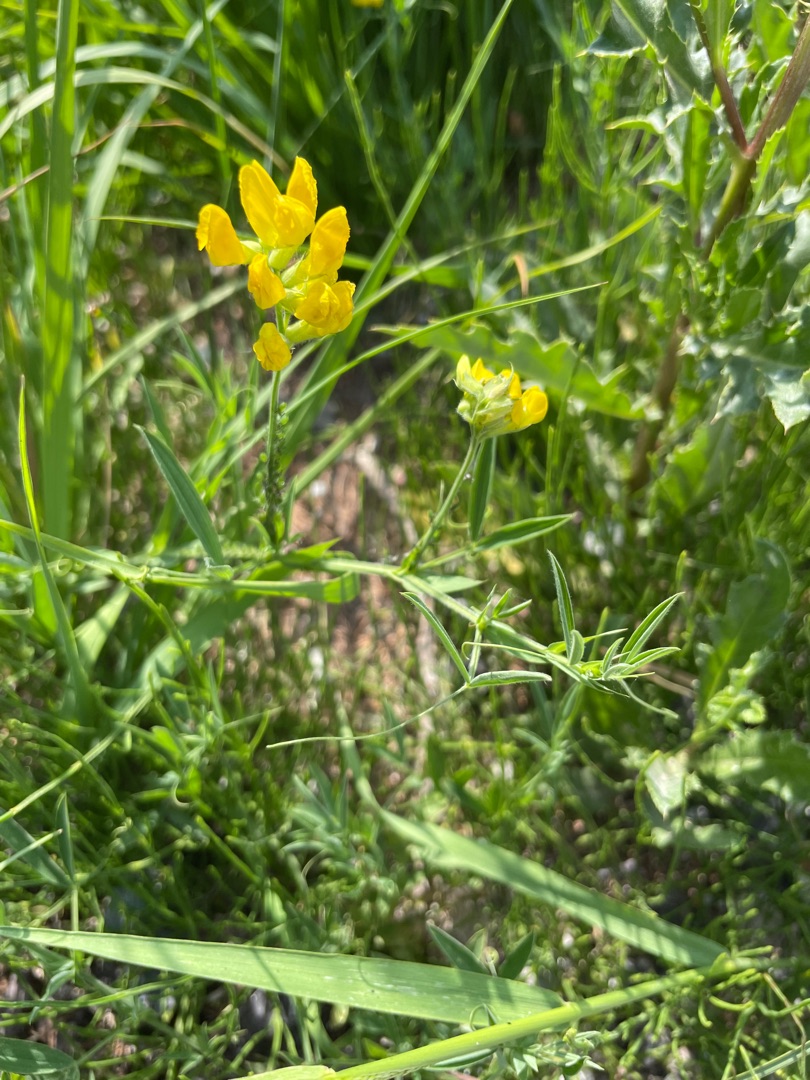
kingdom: Plantae
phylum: Tracheophyta
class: Magnoliopsida
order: Fabales
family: Fabaceae
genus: Lathyrus
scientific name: Lathyrus pratensis
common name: Gul fladbælg
